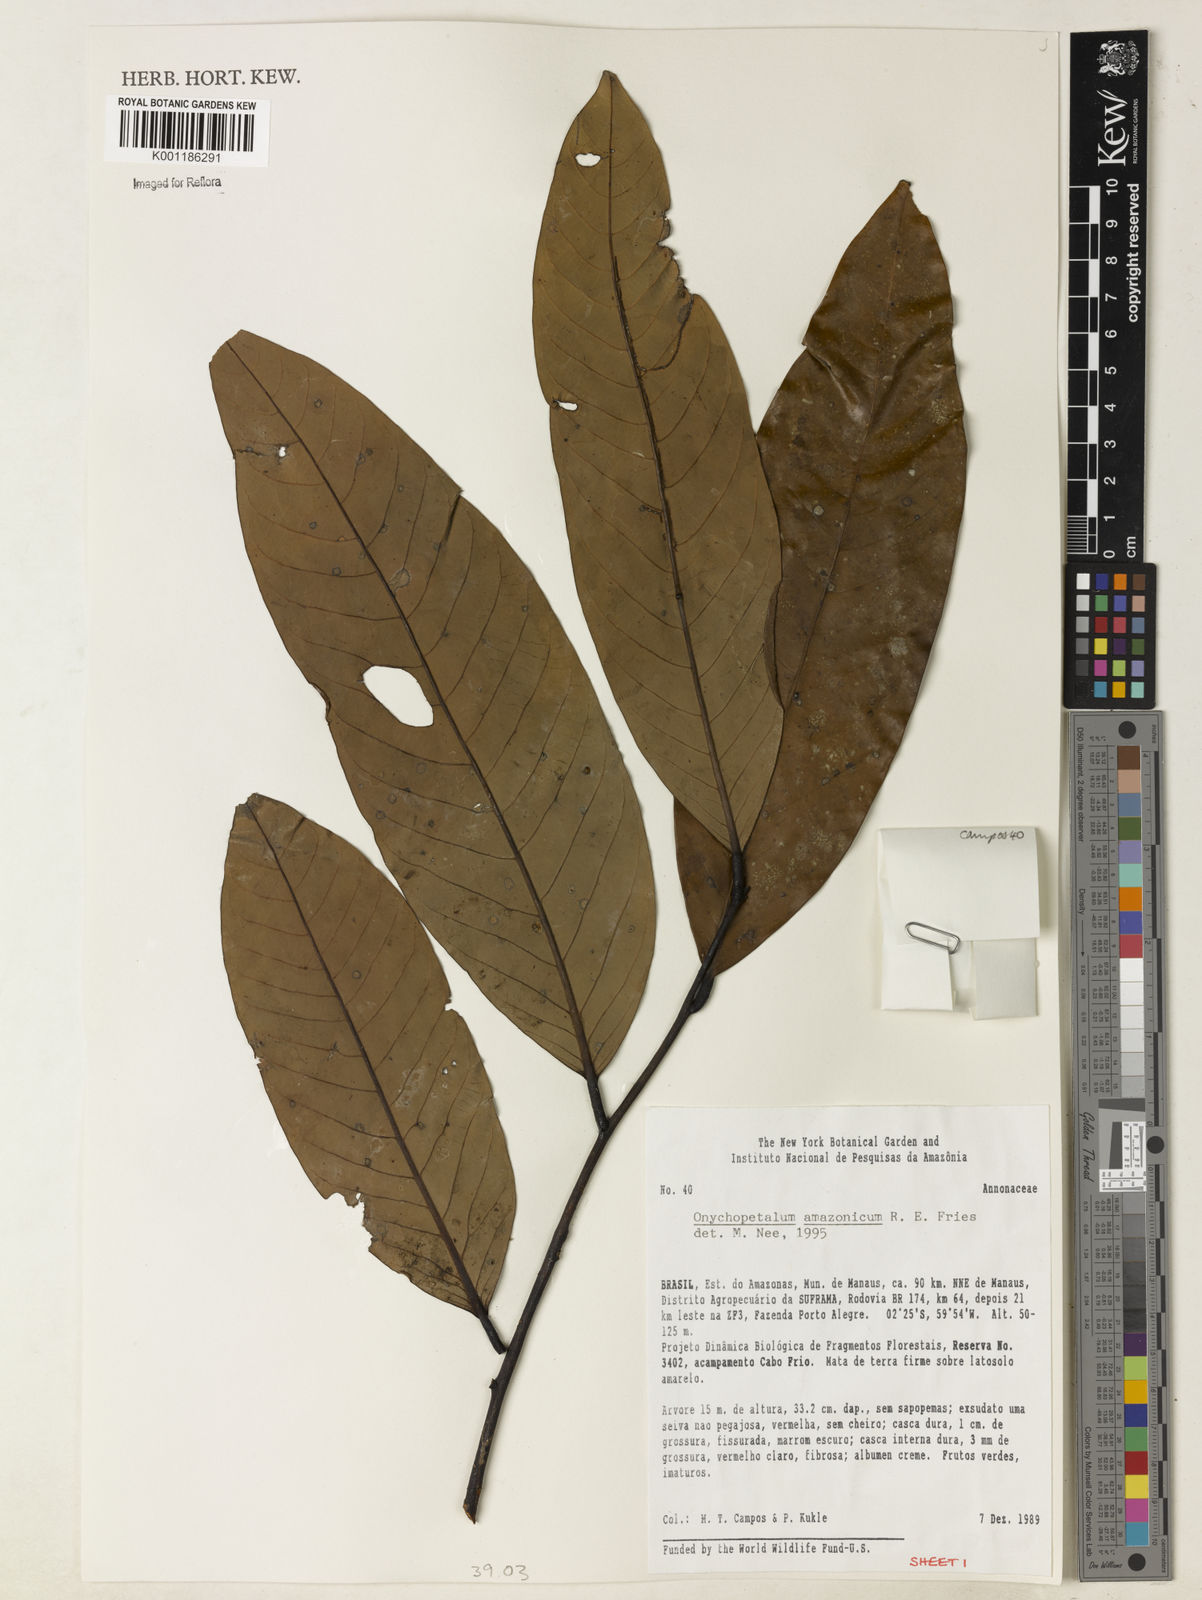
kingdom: Plantae
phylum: Tracheophyta
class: Magnoliopsida
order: Magnoliales
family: Annonaceae
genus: Onychopetalum
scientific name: Onychopetalum amazonicum
